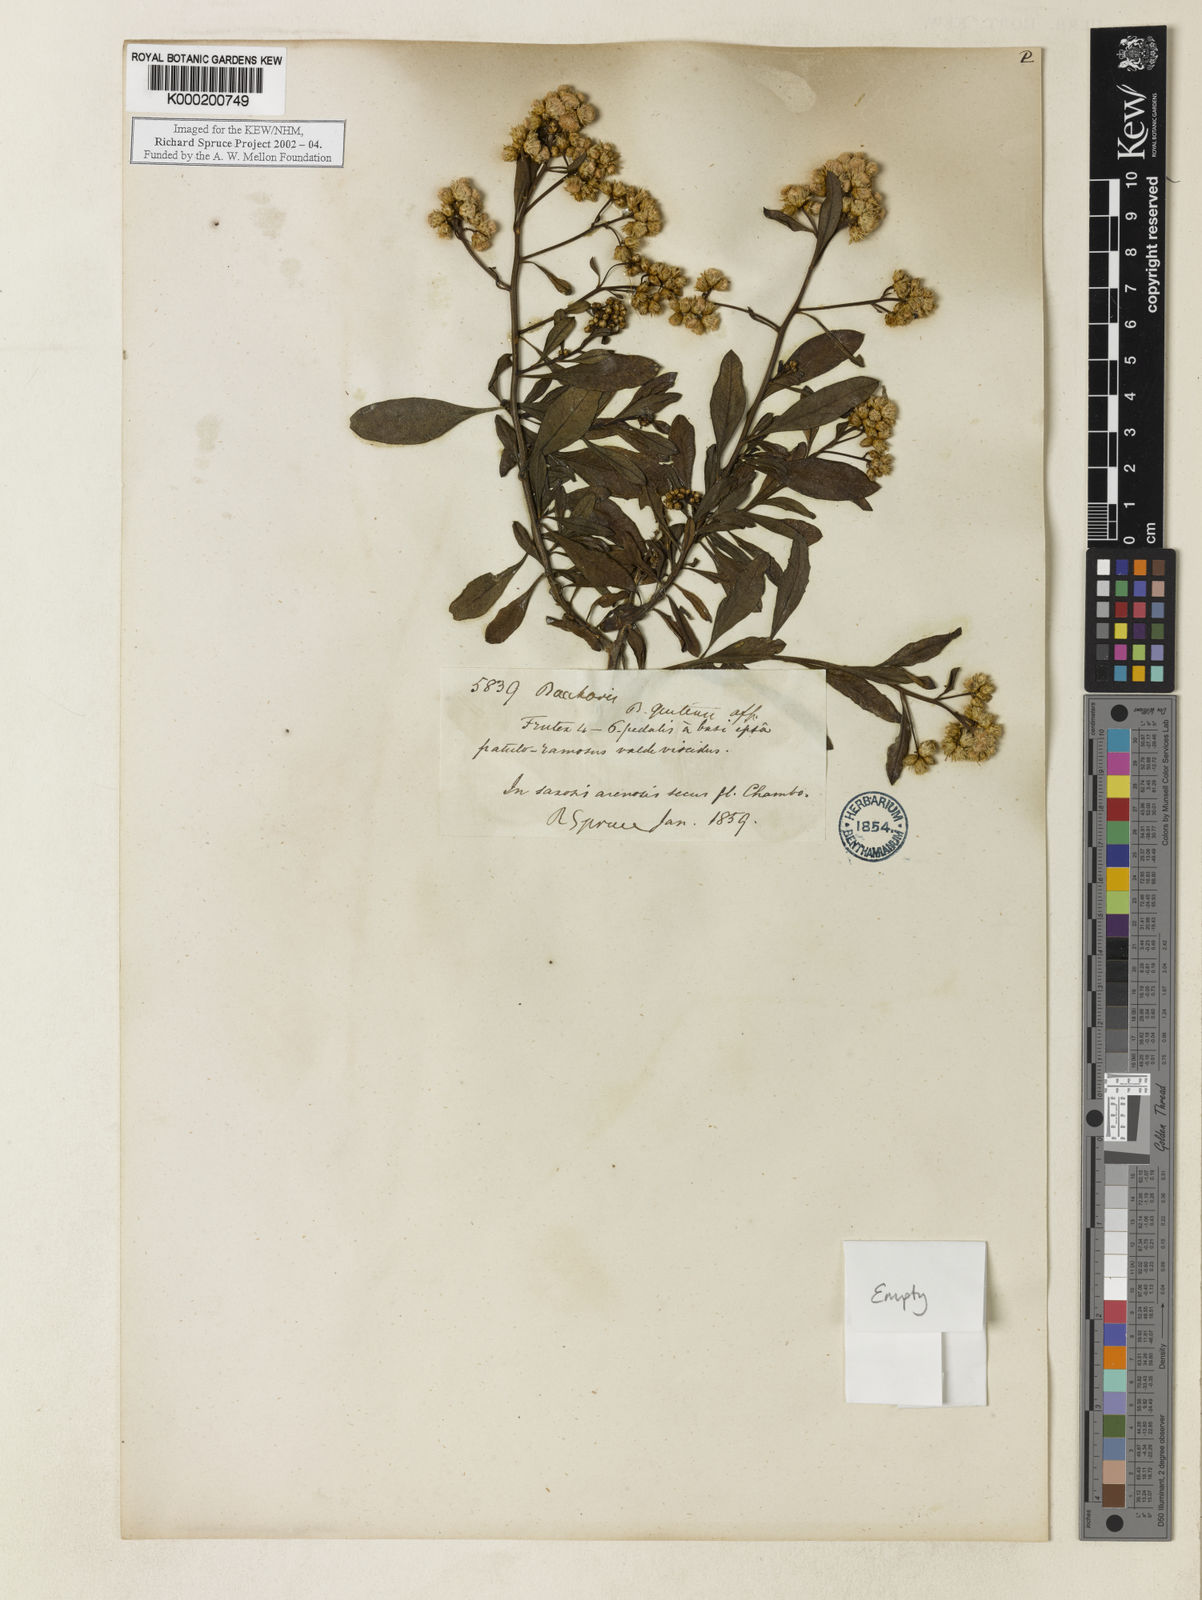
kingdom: Plantae
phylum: Tracheophyta
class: Magnoliopsida
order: Asterales
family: Asteraceae
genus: Baccharis
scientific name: Baccharis
